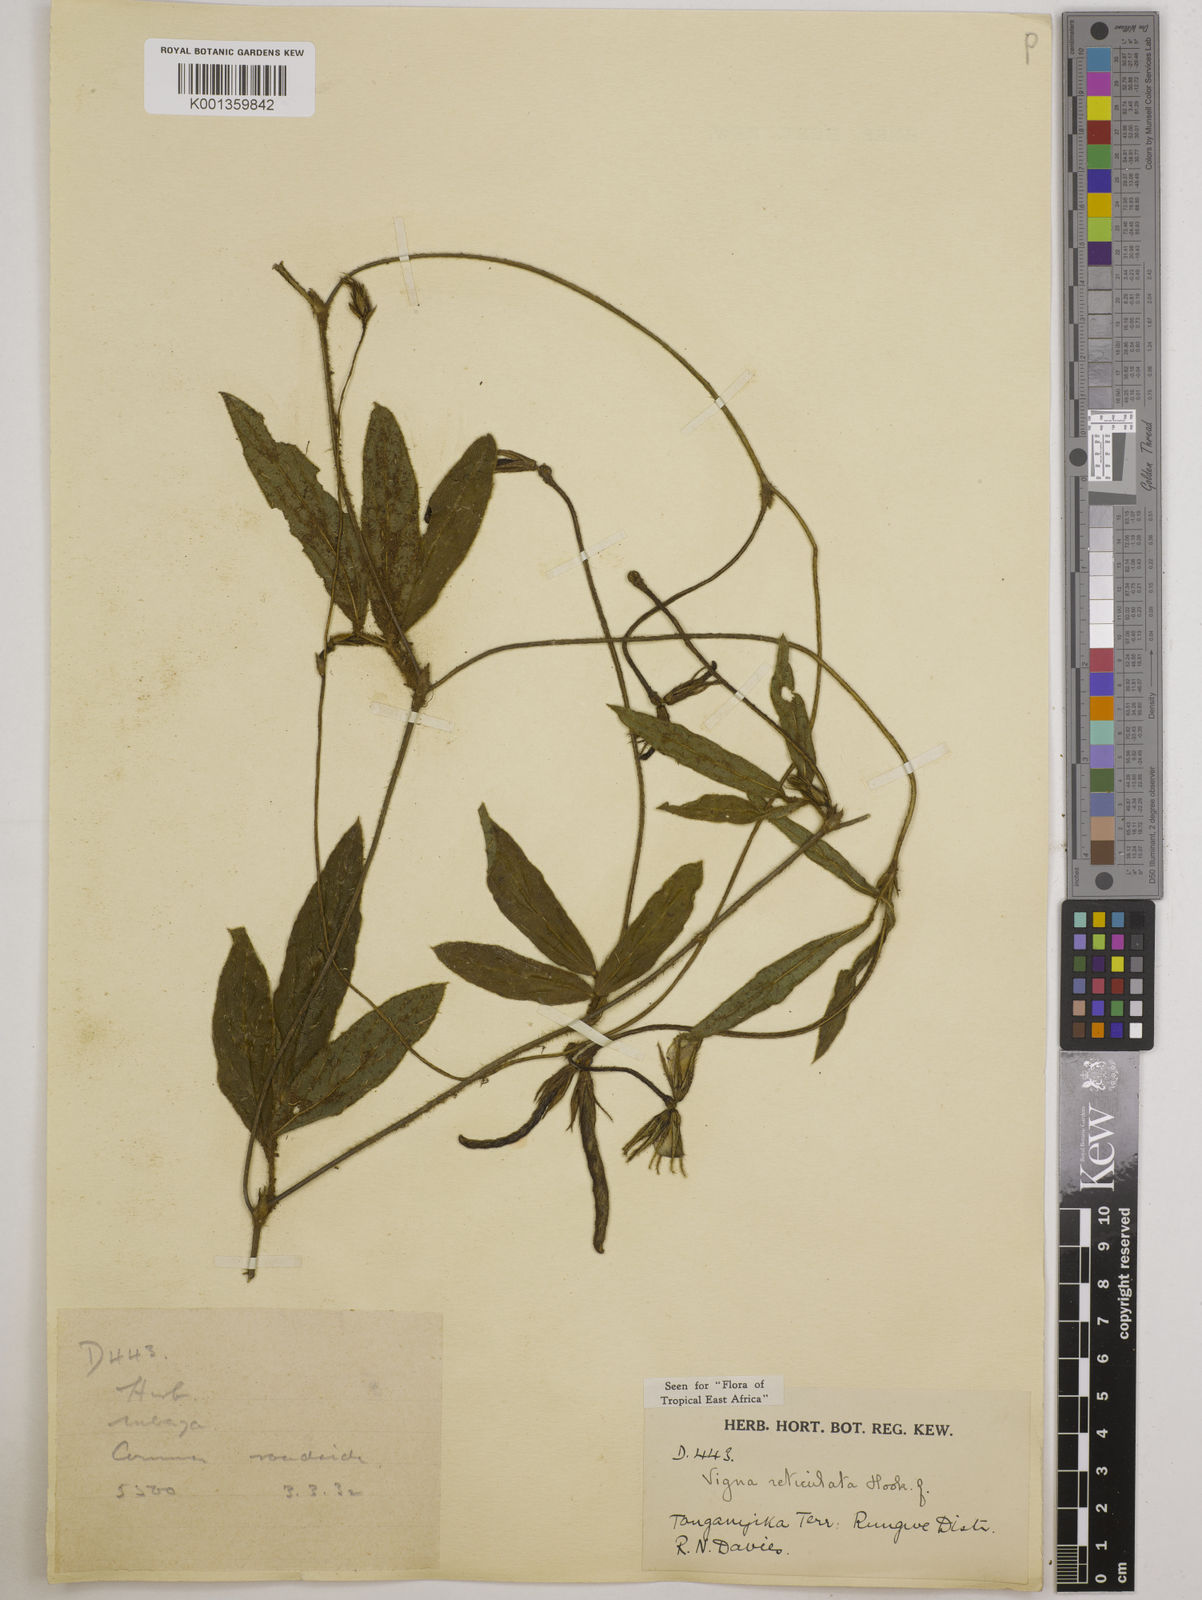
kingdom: Plantae
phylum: Tracheophyta
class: Magnoliopsida
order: Fabales
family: Fabaceae
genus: Vigna
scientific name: Vigna reticulata
